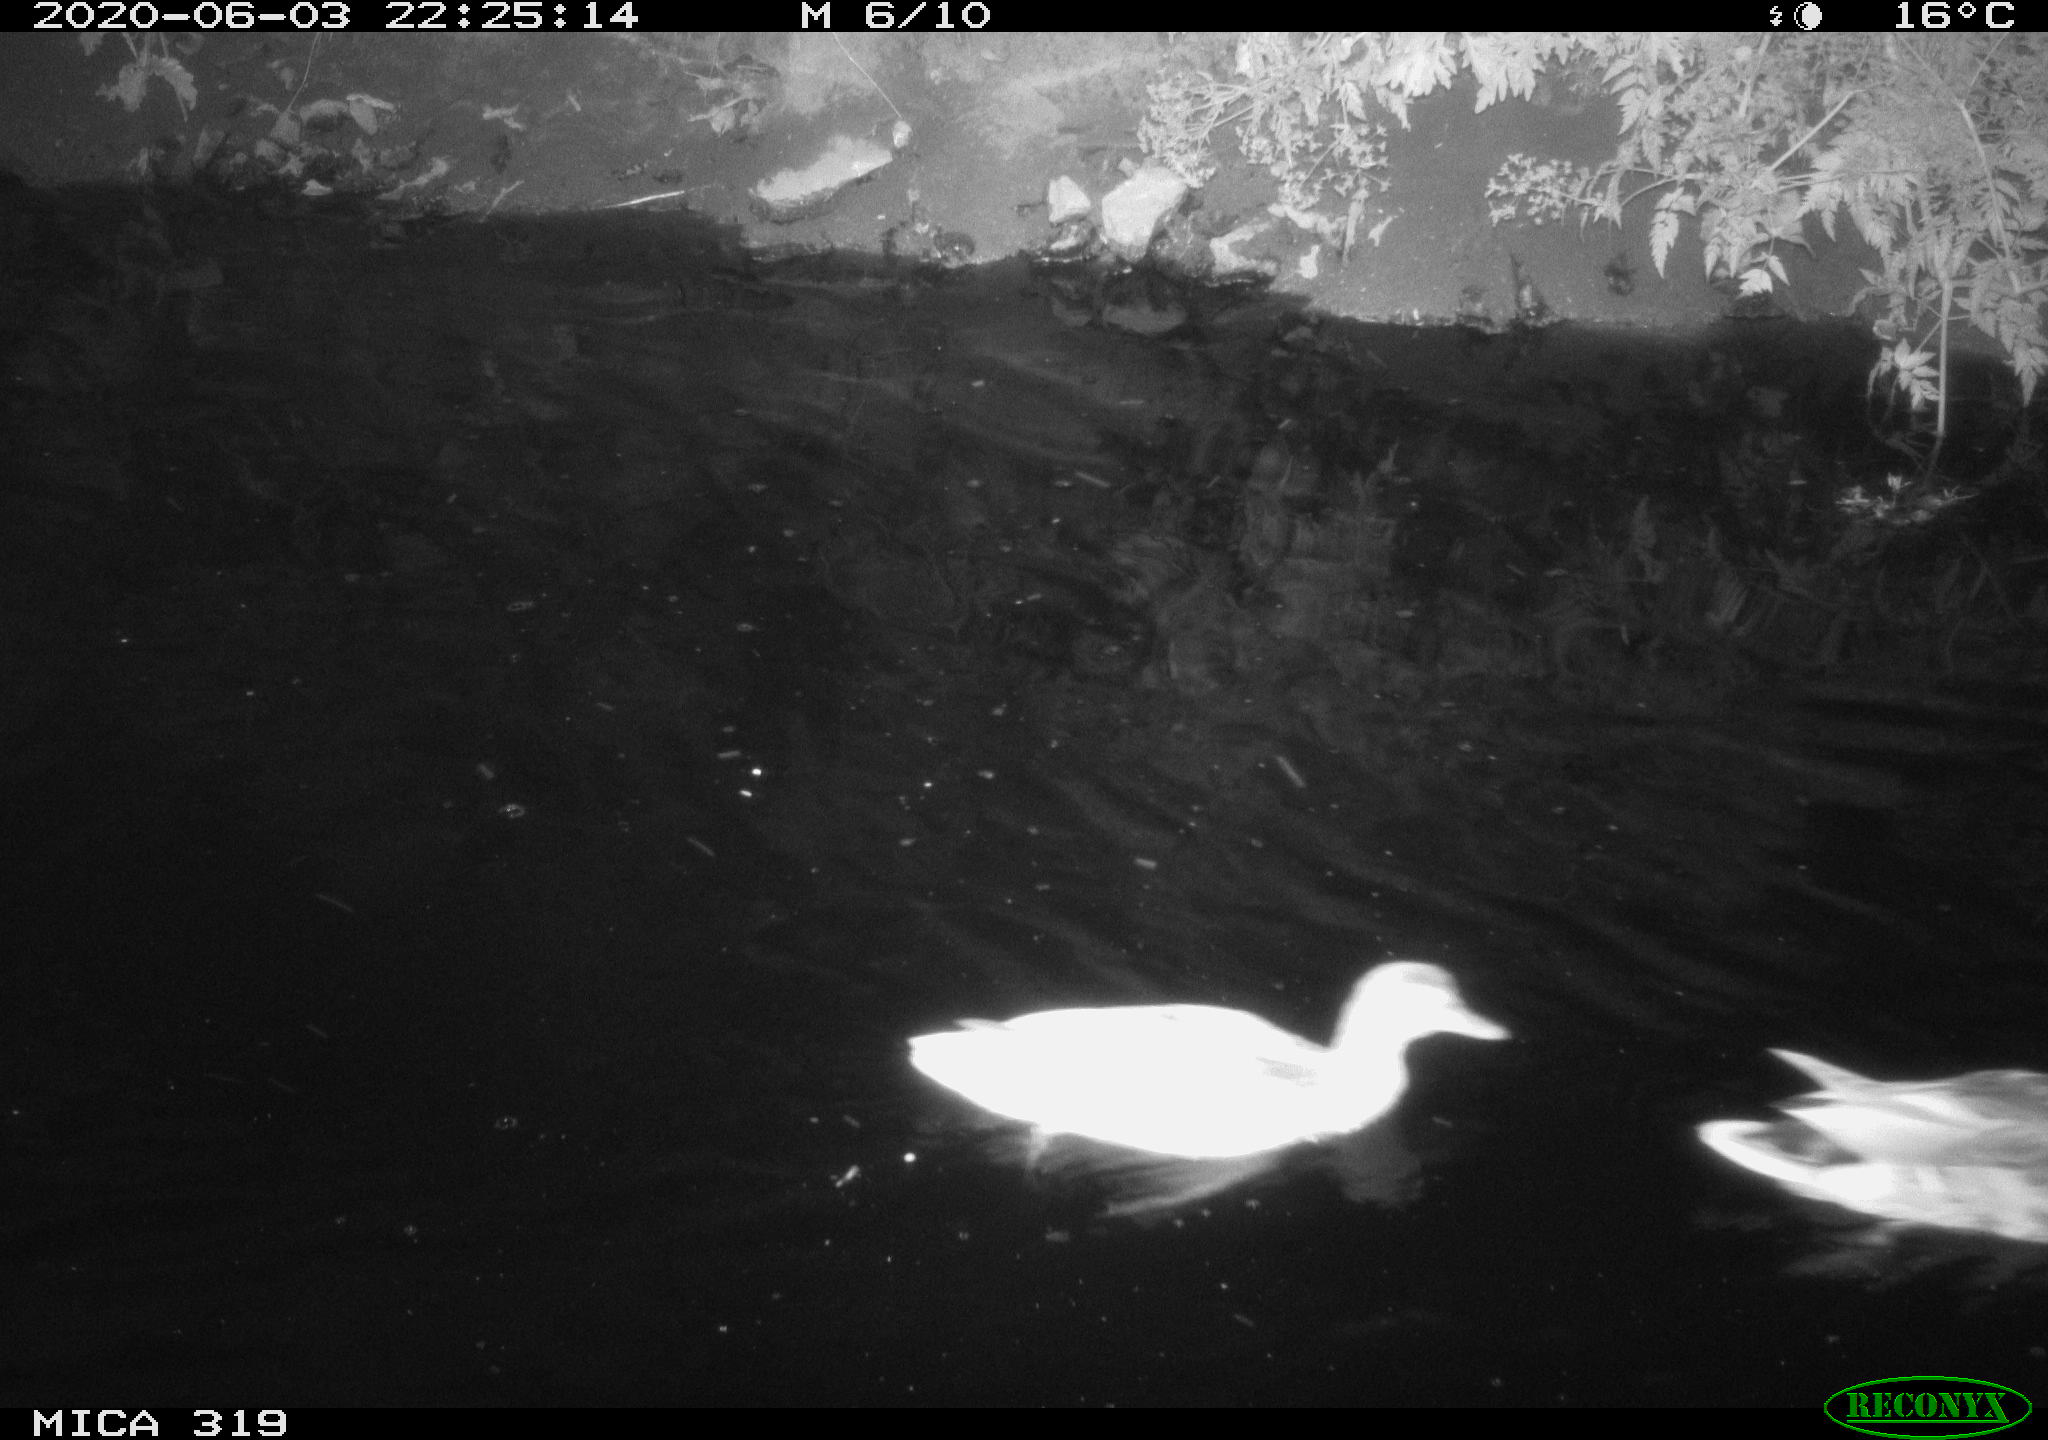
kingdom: Animalia
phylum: Chordata
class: Aves
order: Anseriformes
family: Anatidae
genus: Anas
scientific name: Anas platyrhynchos
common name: Mallard
